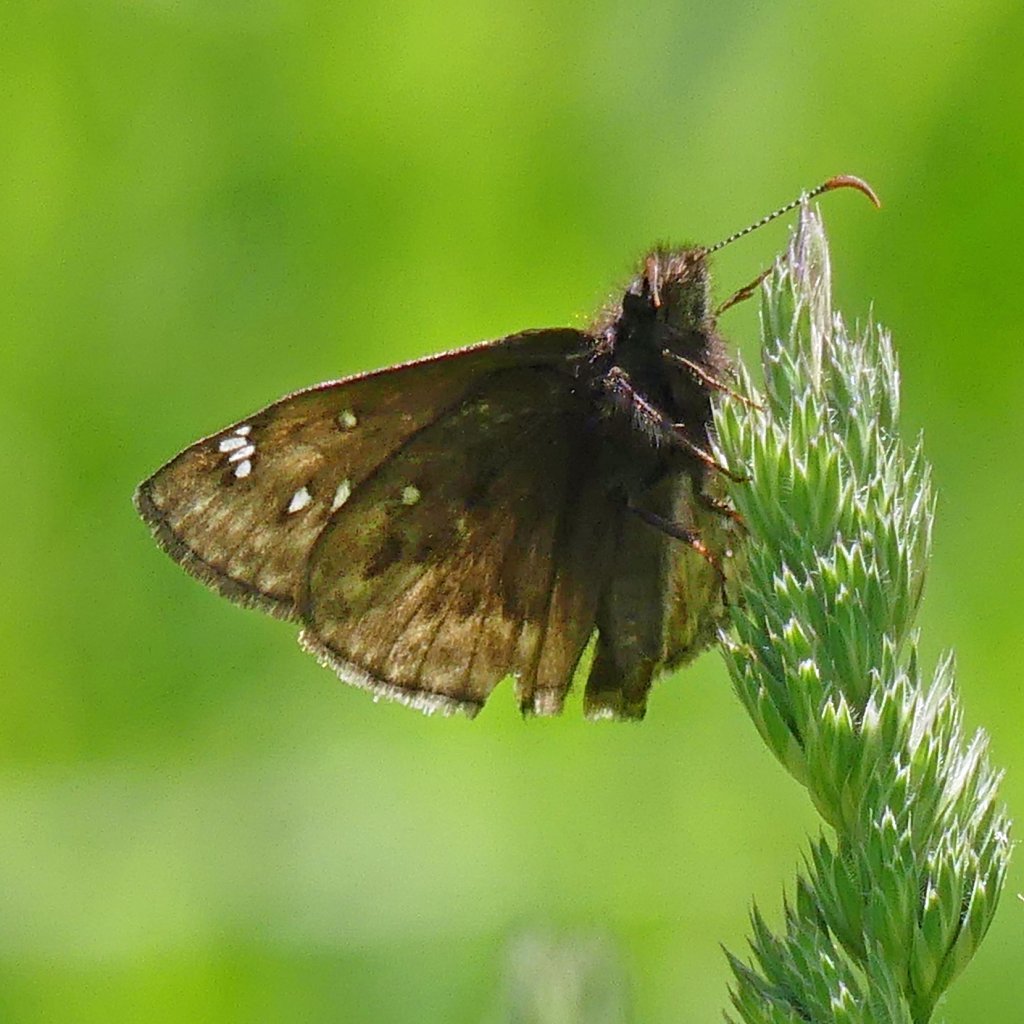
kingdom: Animalia
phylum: Arthropoda
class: Insecta
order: Lepidoptera
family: Hesperiidae
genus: Gesta
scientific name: Gesta
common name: Juvenal's Duskywing
